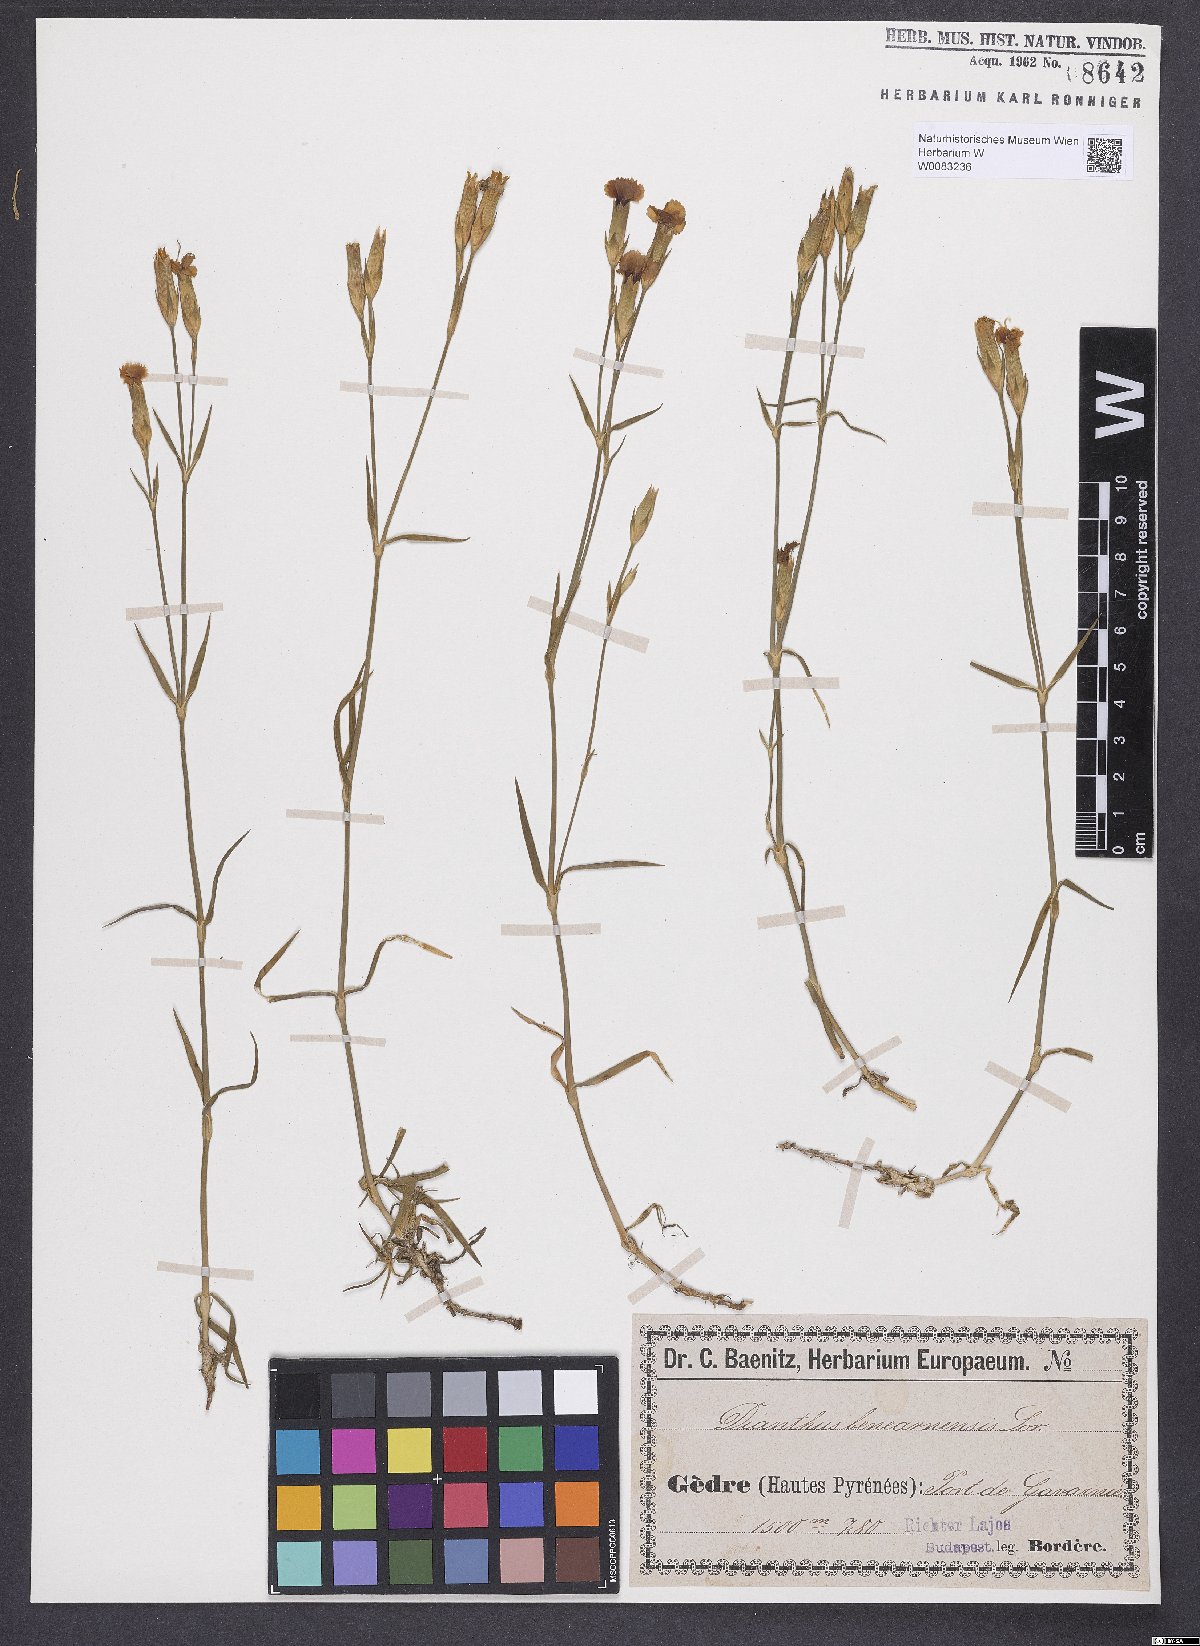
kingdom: Plantae
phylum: Tracheophyta
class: Magnoliopsida
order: Caryophyllales
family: Caryophyllaceae
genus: Dianthus
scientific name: Dianthus furcatus
